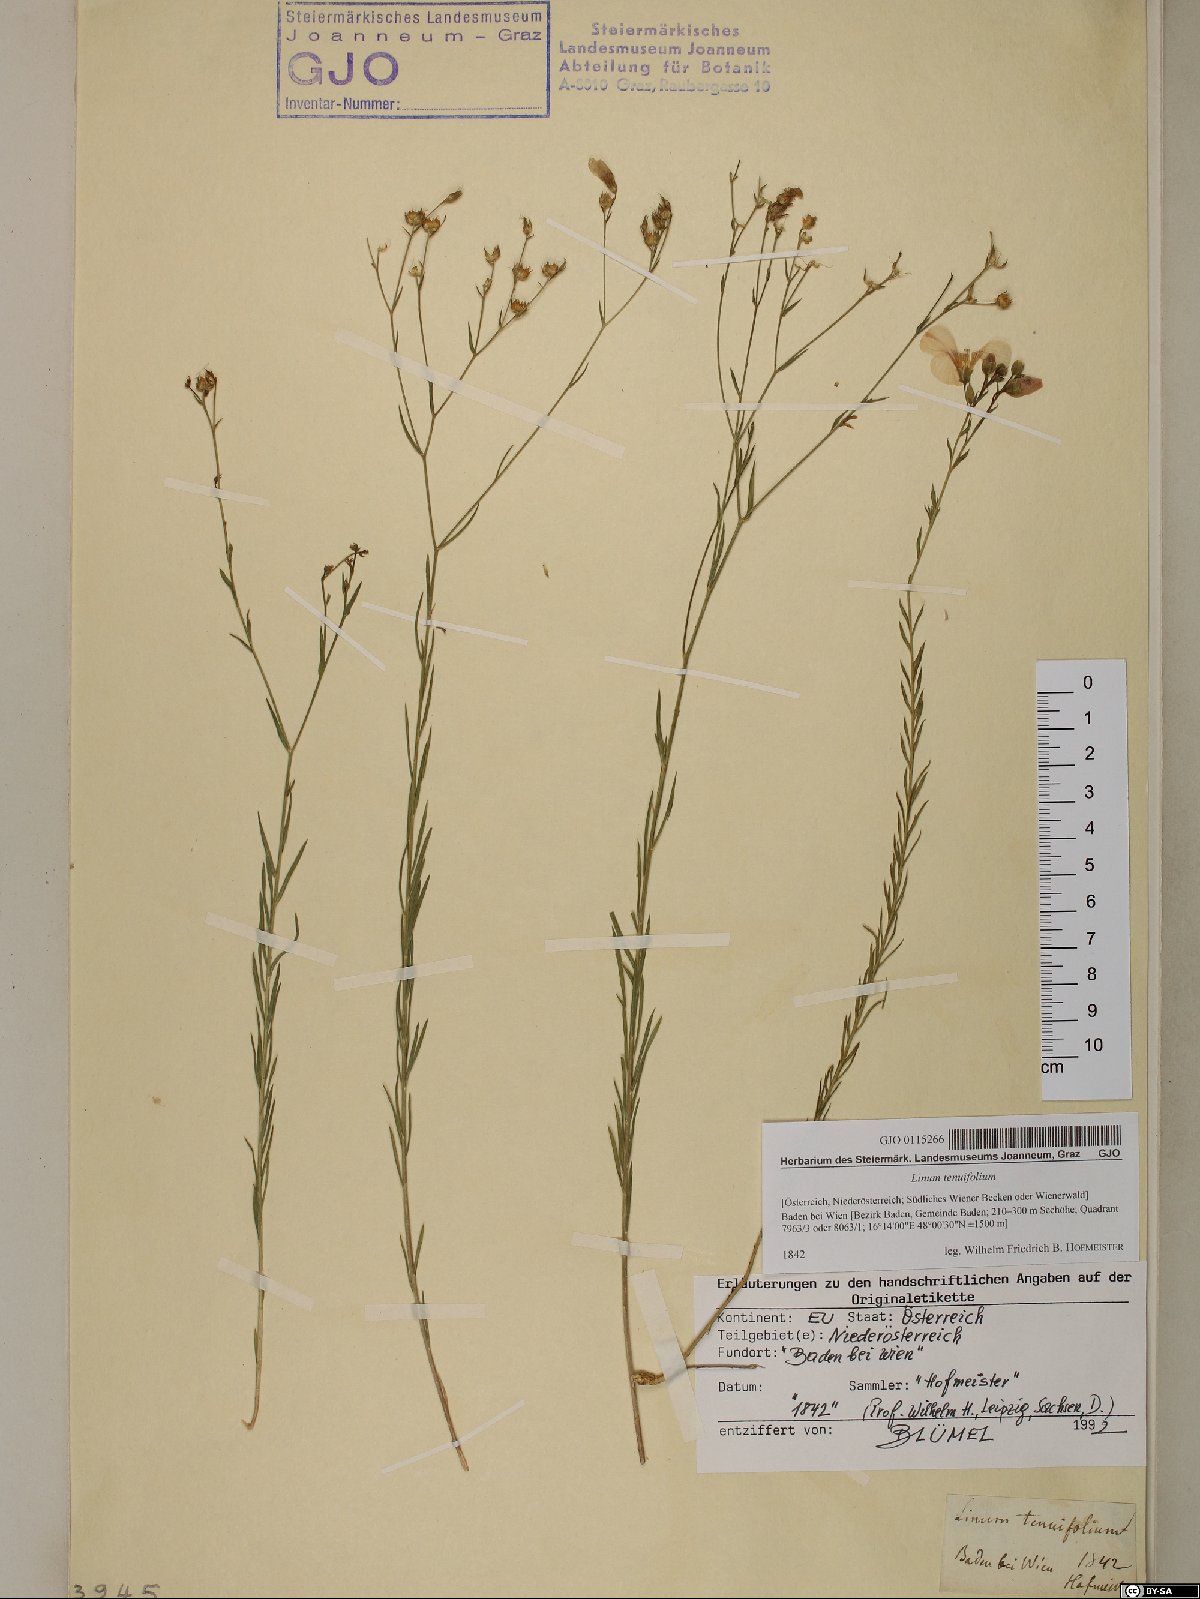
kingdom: Plantae
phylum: Tracheophyta
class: Magnoliopsida
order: Malpighiales
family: Linaceae
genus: Linum
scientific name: Linum tenuifolium
